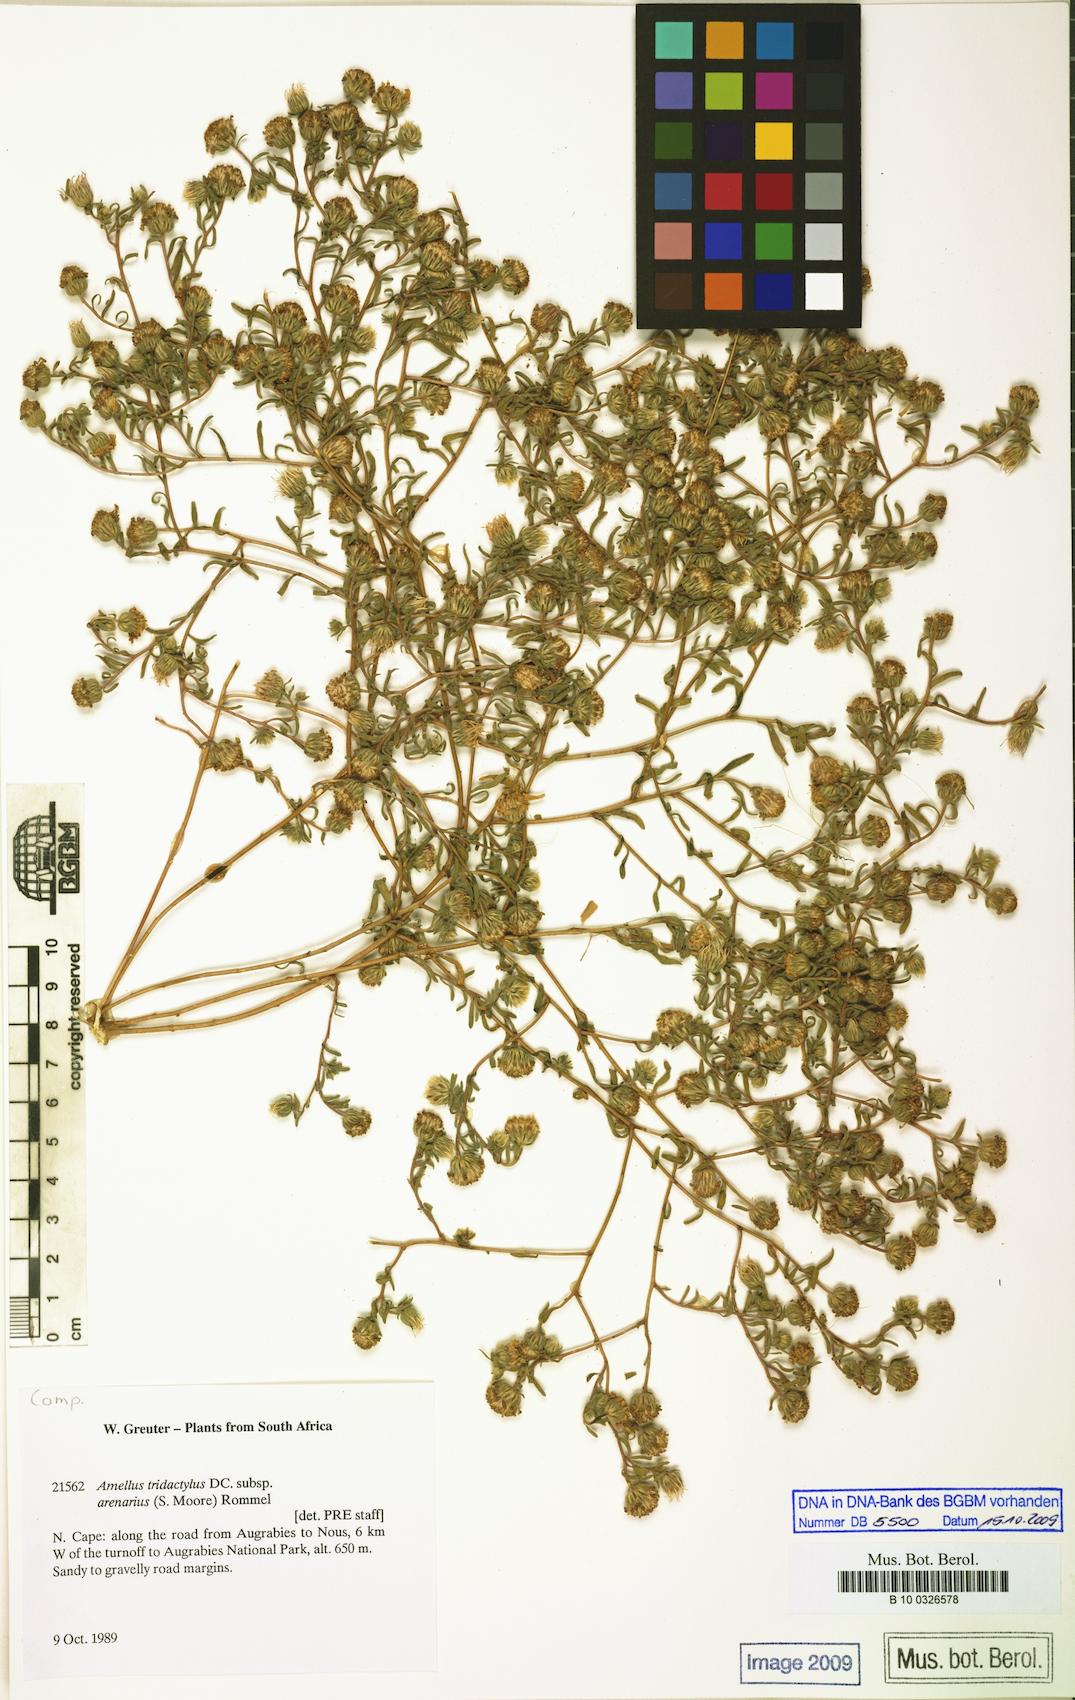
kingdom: Plantae
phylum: Tracheophyta
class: Magnoliopsida
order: Asterales
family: Asteraceae
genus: Amellus
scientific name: Amellus tridactylus
